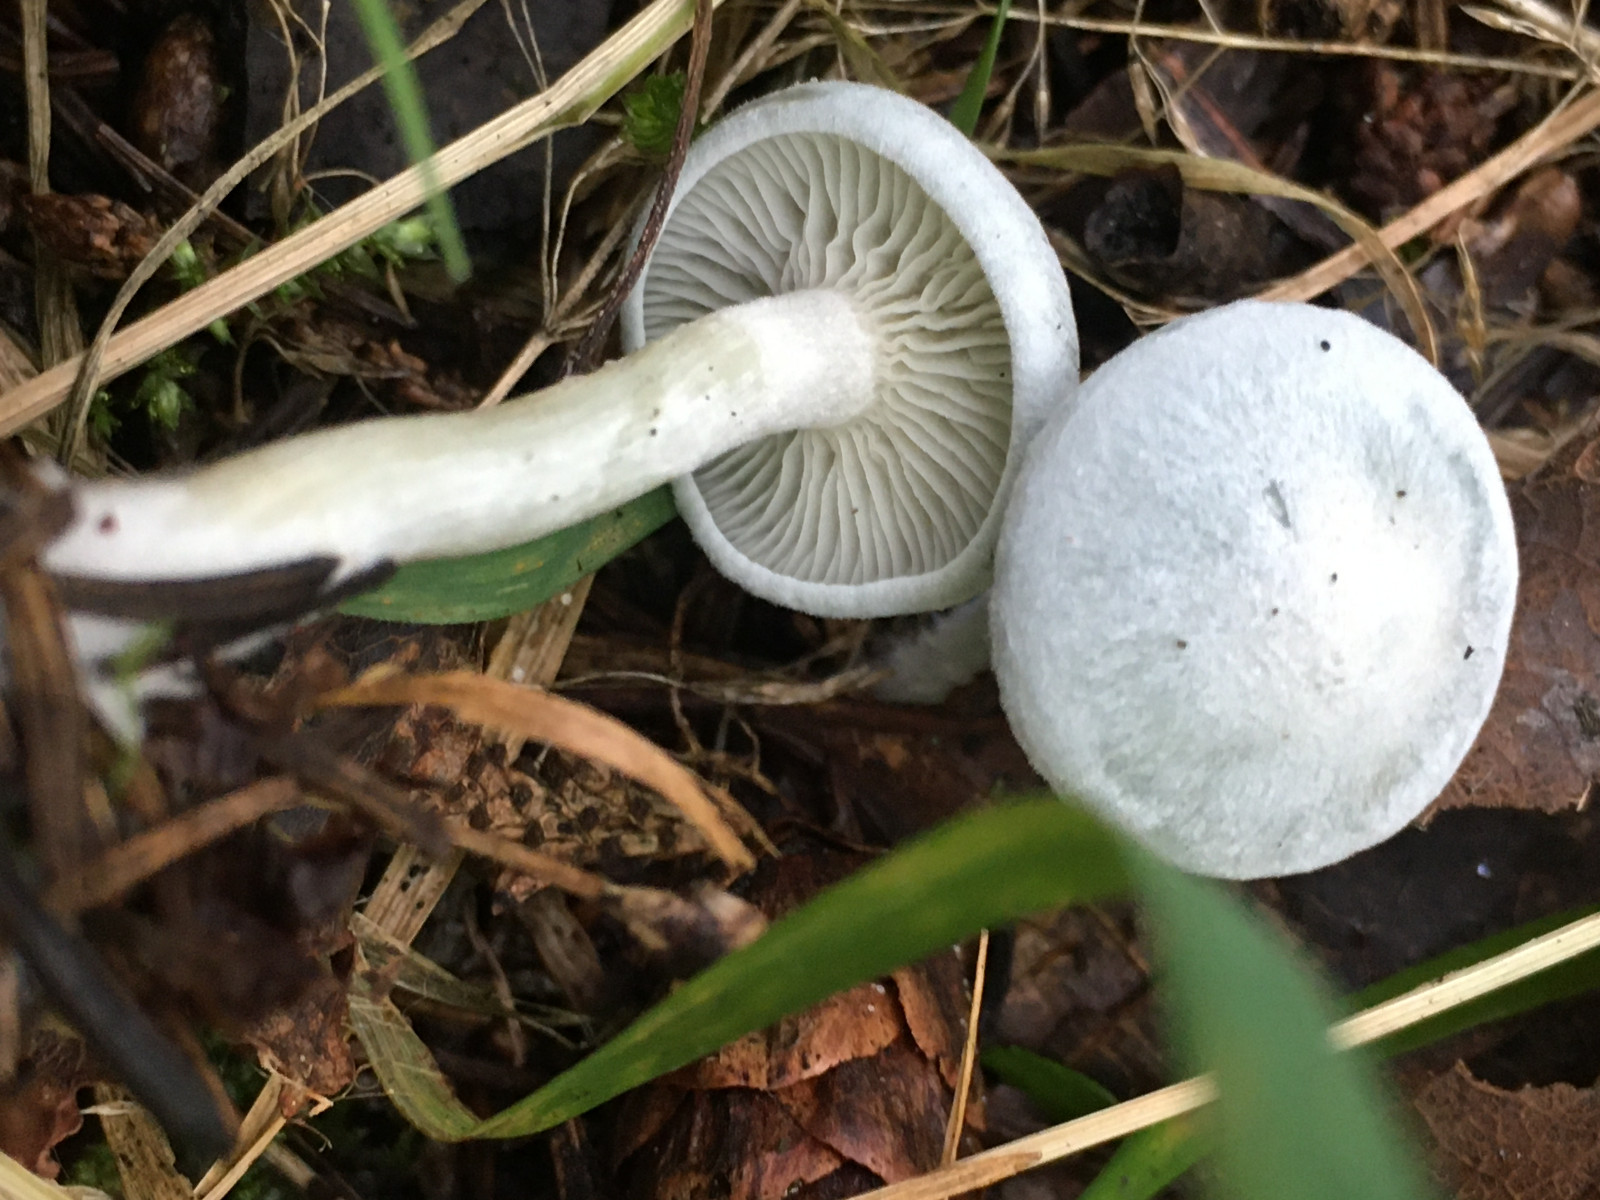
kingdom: Fungi
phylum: Basidiomycota
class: Agaricomycetes
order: Agaricales
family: Tricholomataceae
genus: Clitocybe
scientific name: Clitocybe odora
